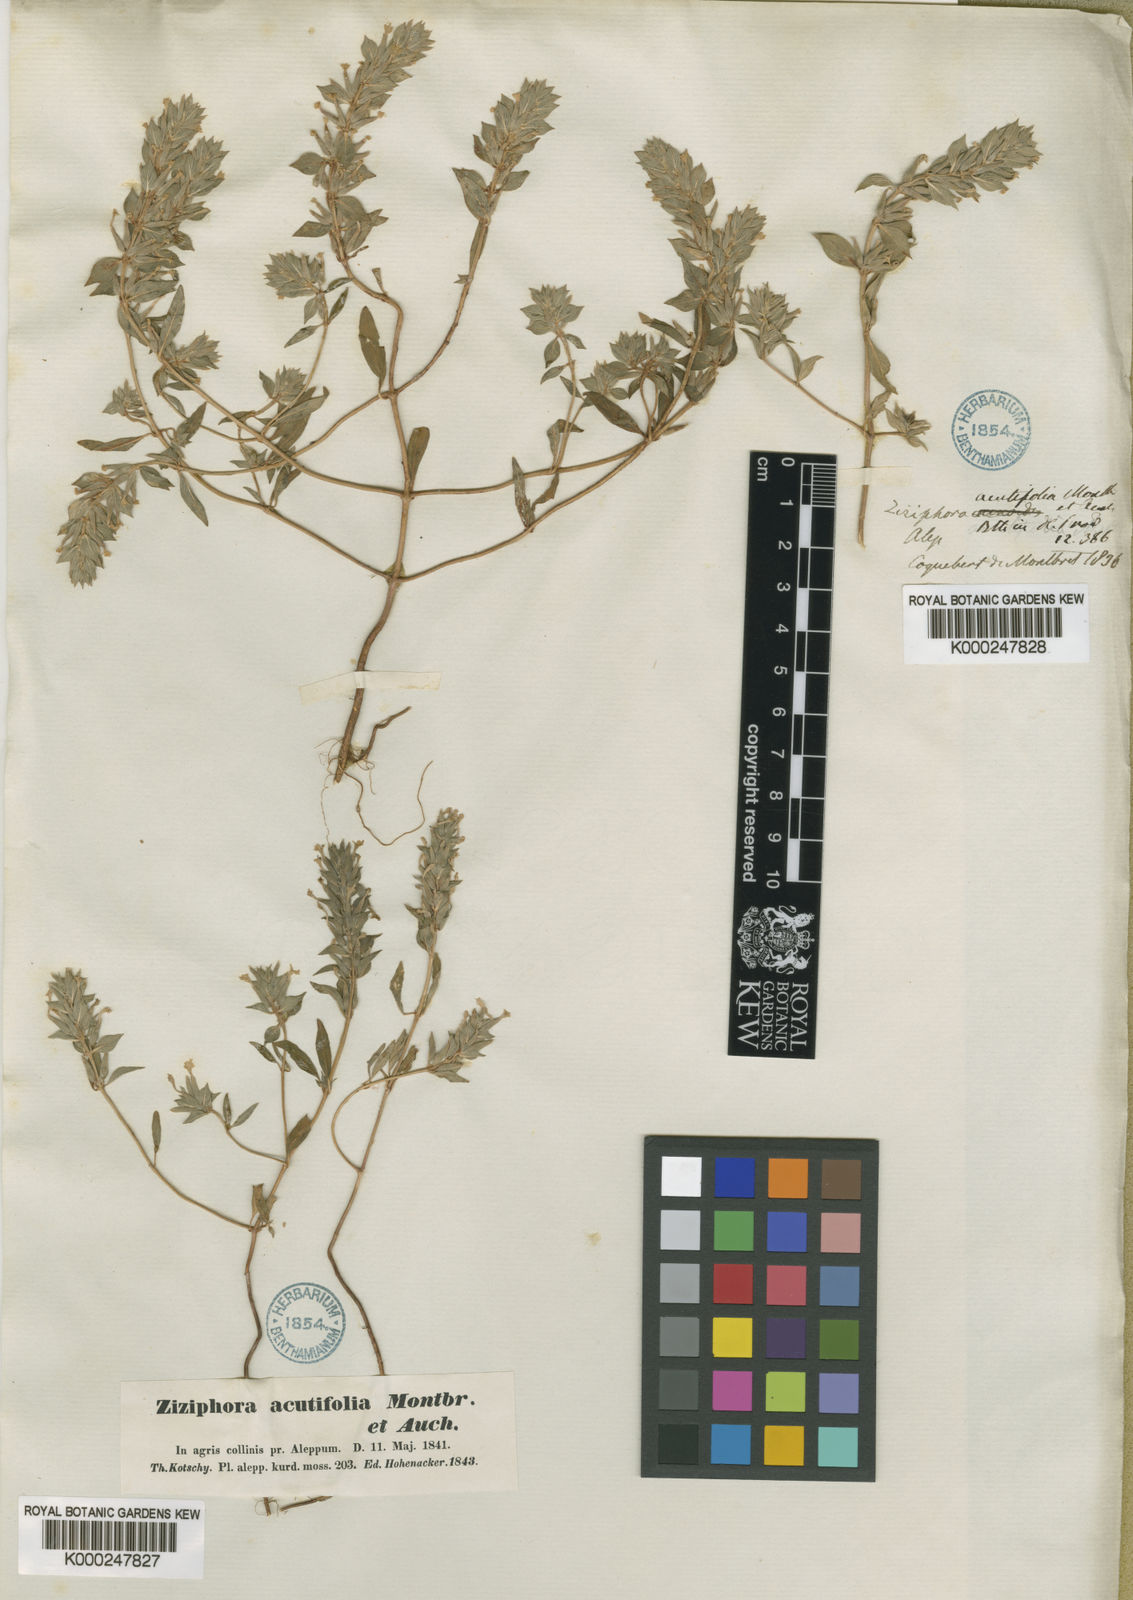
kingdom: Plantae
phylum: Tracheophyta
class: Magnoliopsida
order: Lamiales
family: Lamiaceae
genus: Ziziphora
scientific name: Ziziphora tenuior
